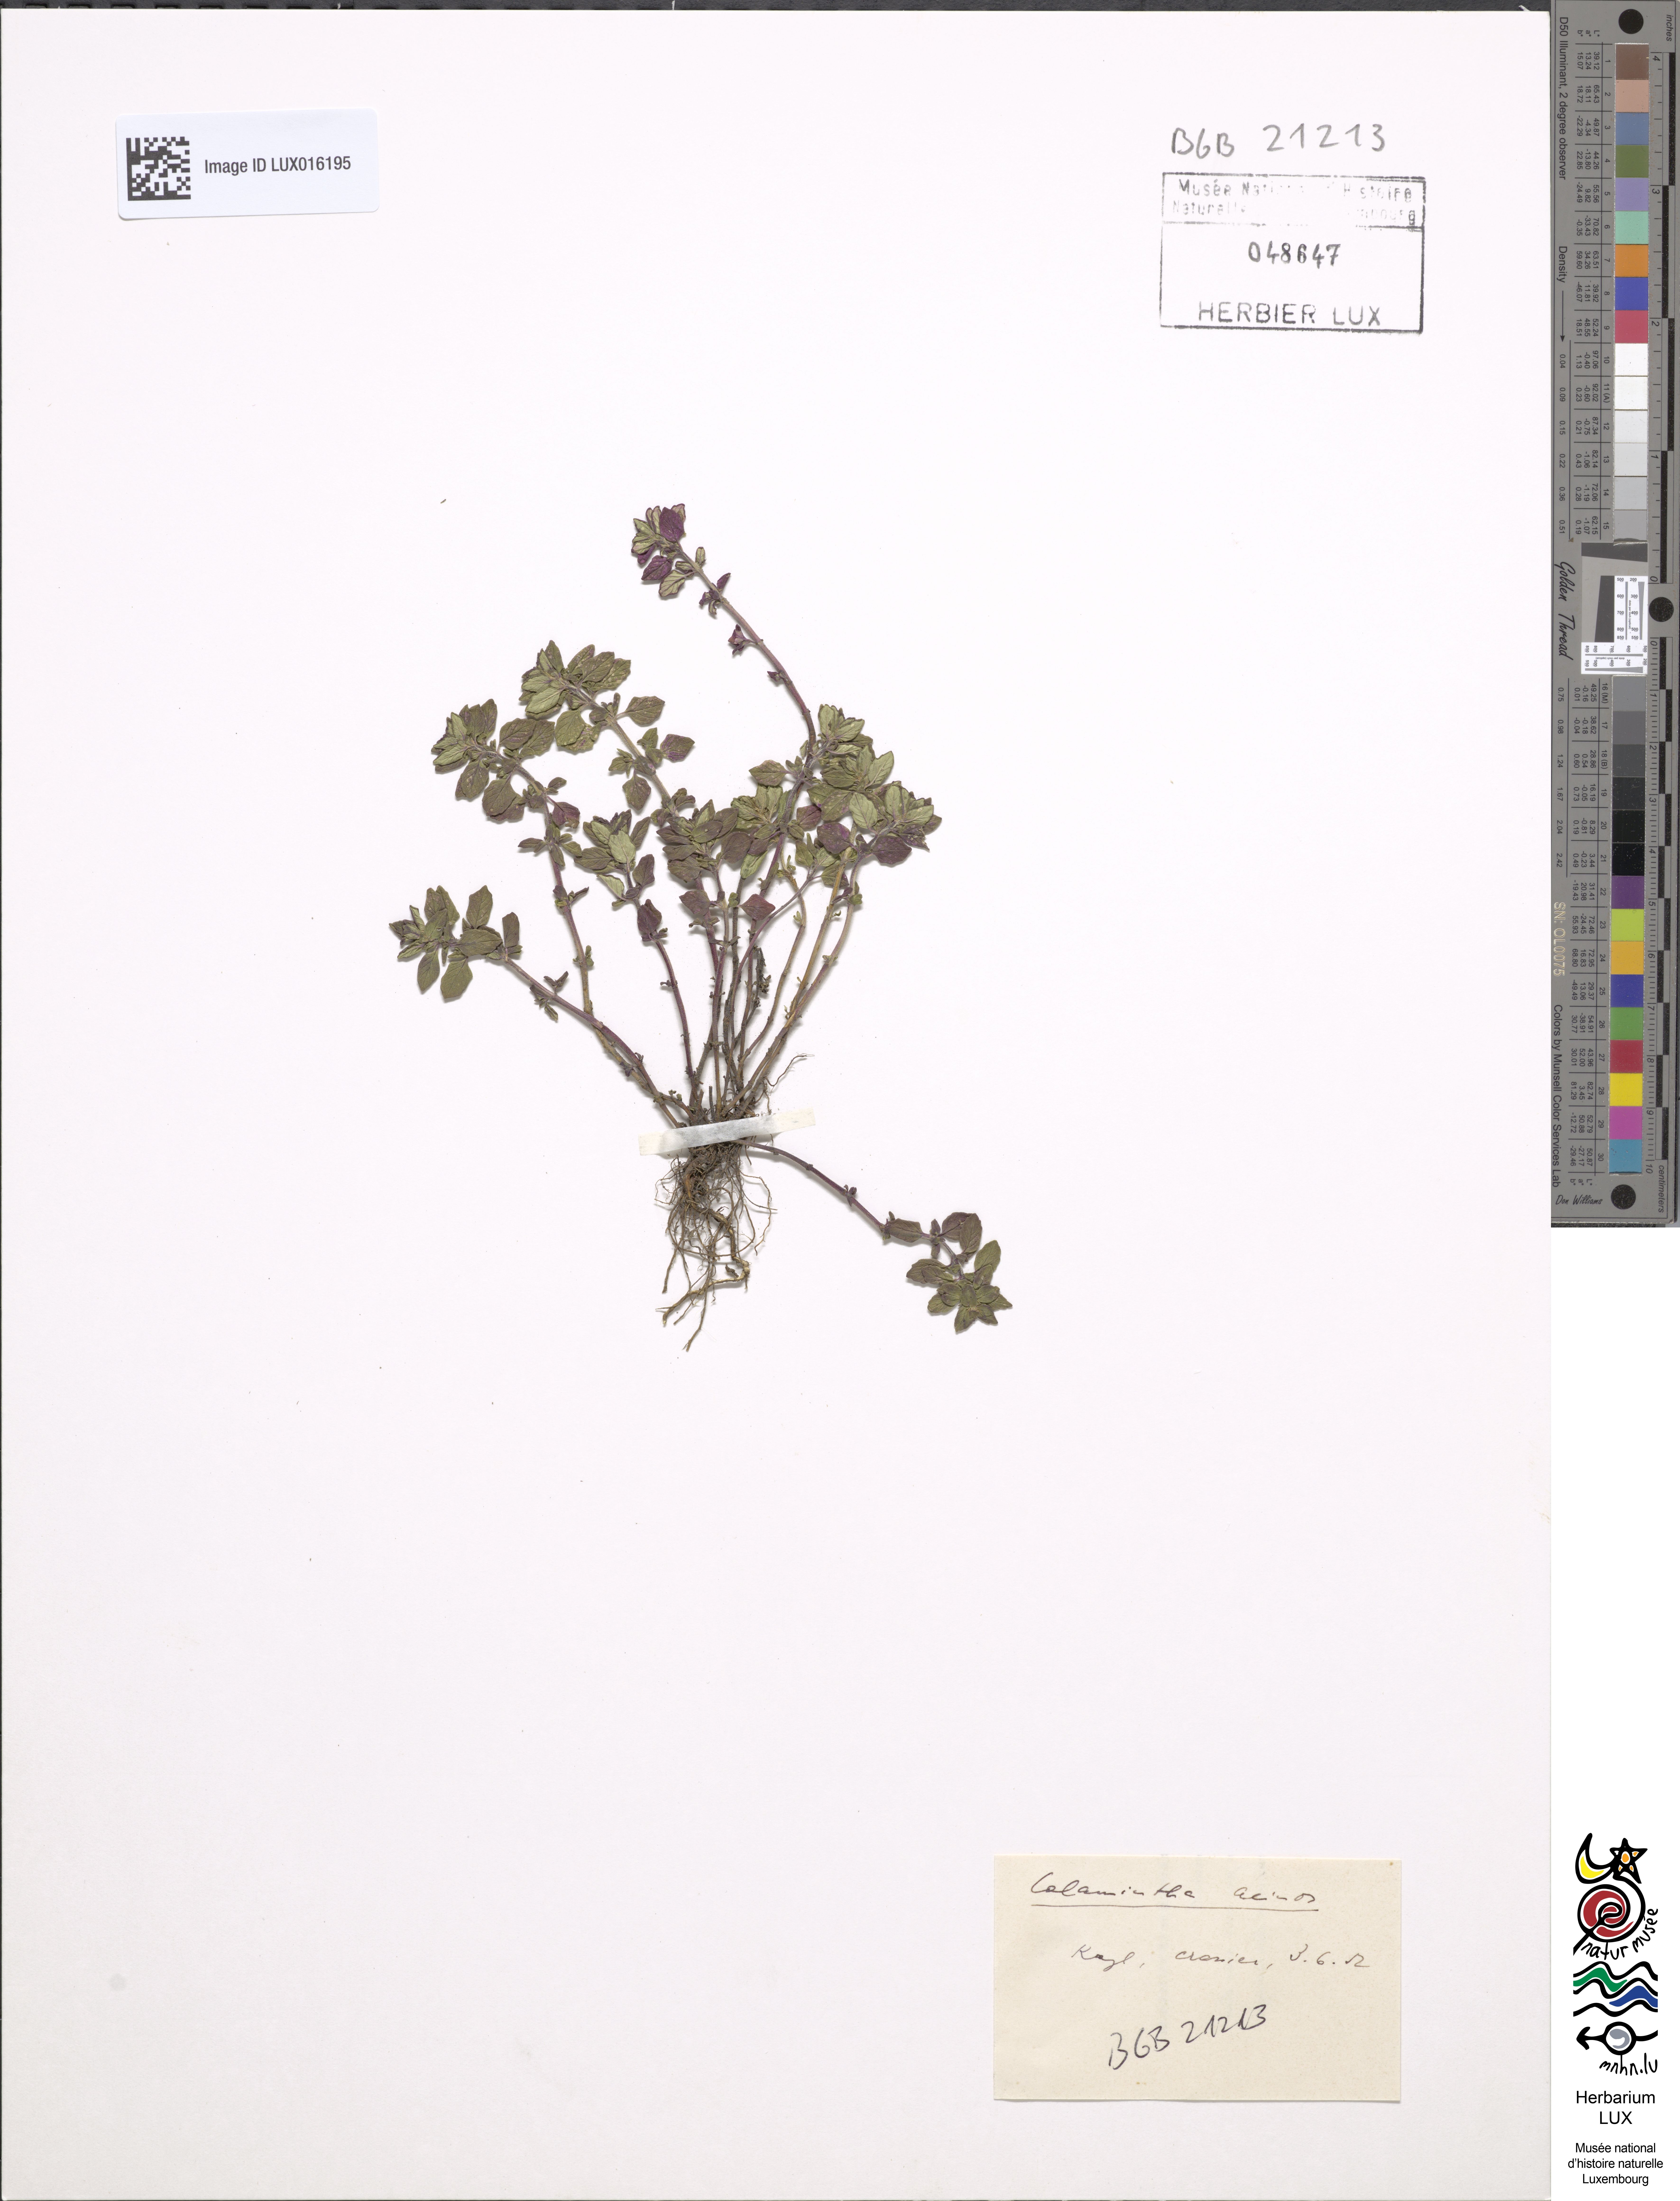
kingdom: Plantae
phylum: Tracheophyta
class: Magnoliopsida
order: Lamiales
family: Lamiaceae
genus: Clinopodium
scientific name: Clinopodium acinos
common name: Basil thyme
